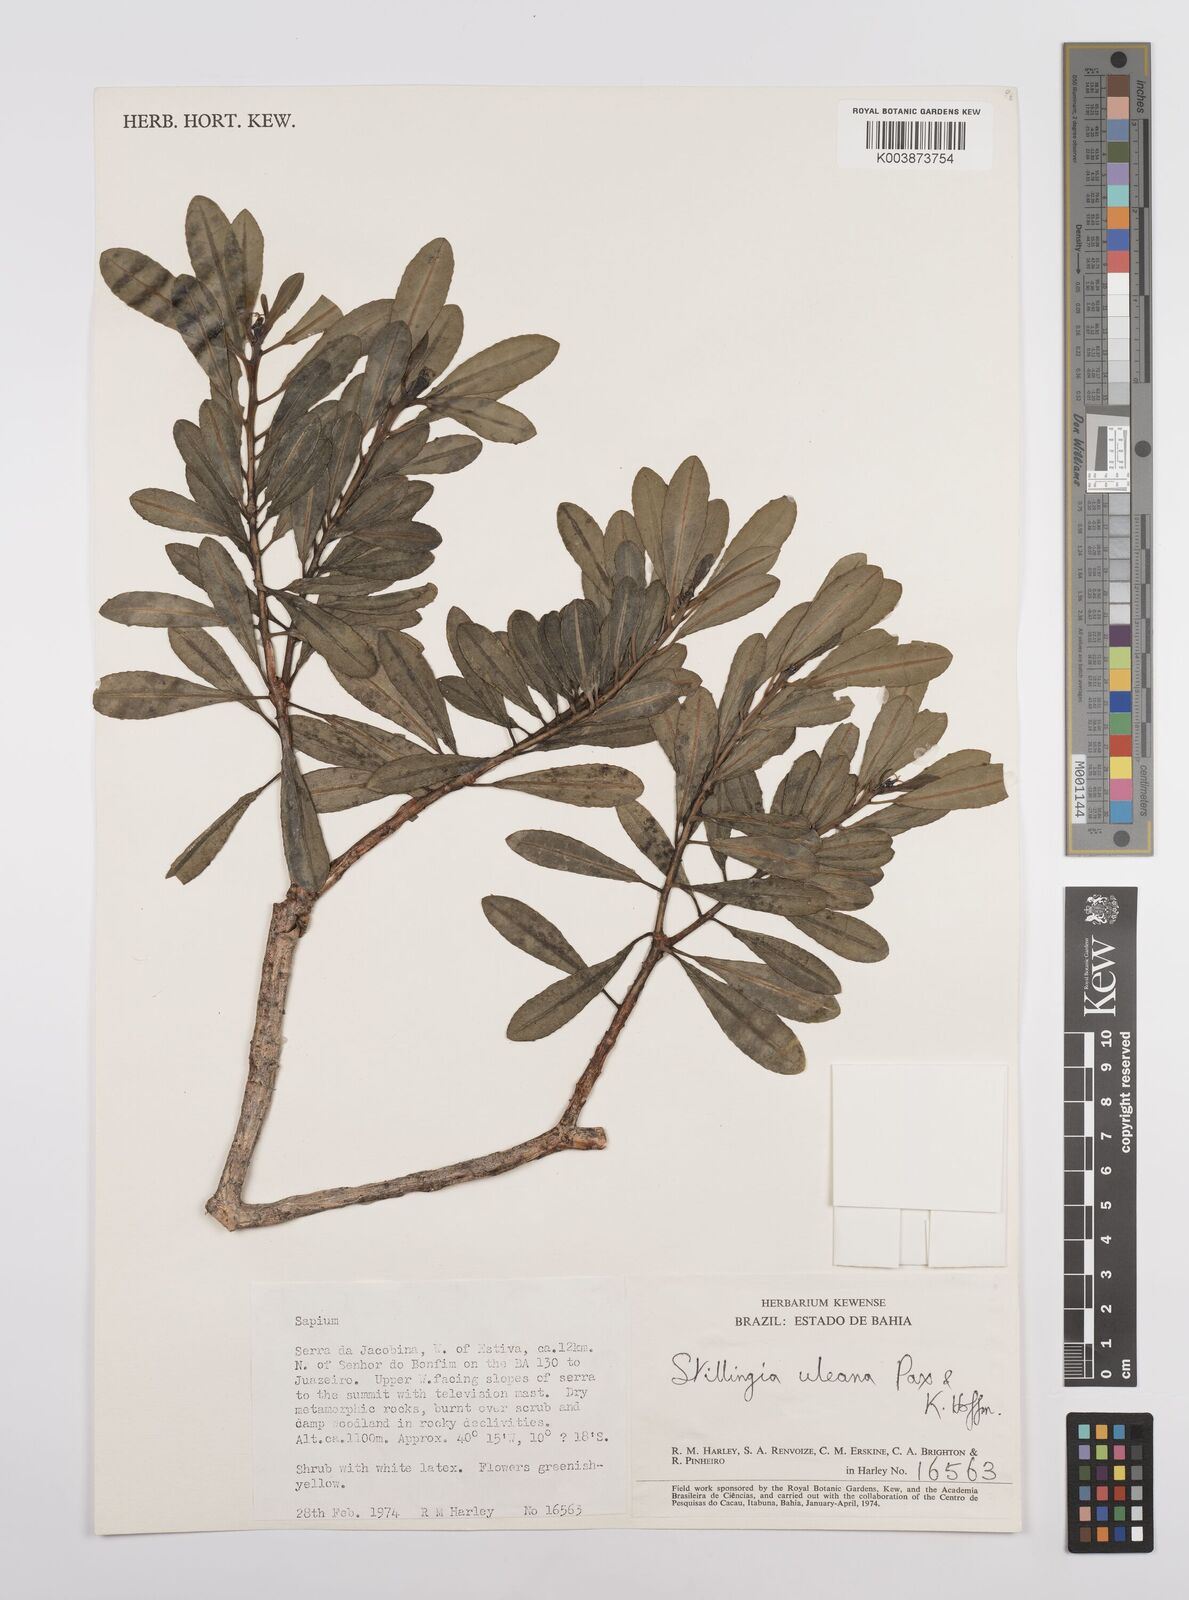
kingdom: Plantae
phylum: Tracheophyta
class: Magnoliopsida
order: Malpighiales
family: Euphorbiaceae
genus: Stillingia
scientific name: Stillingia uleana
